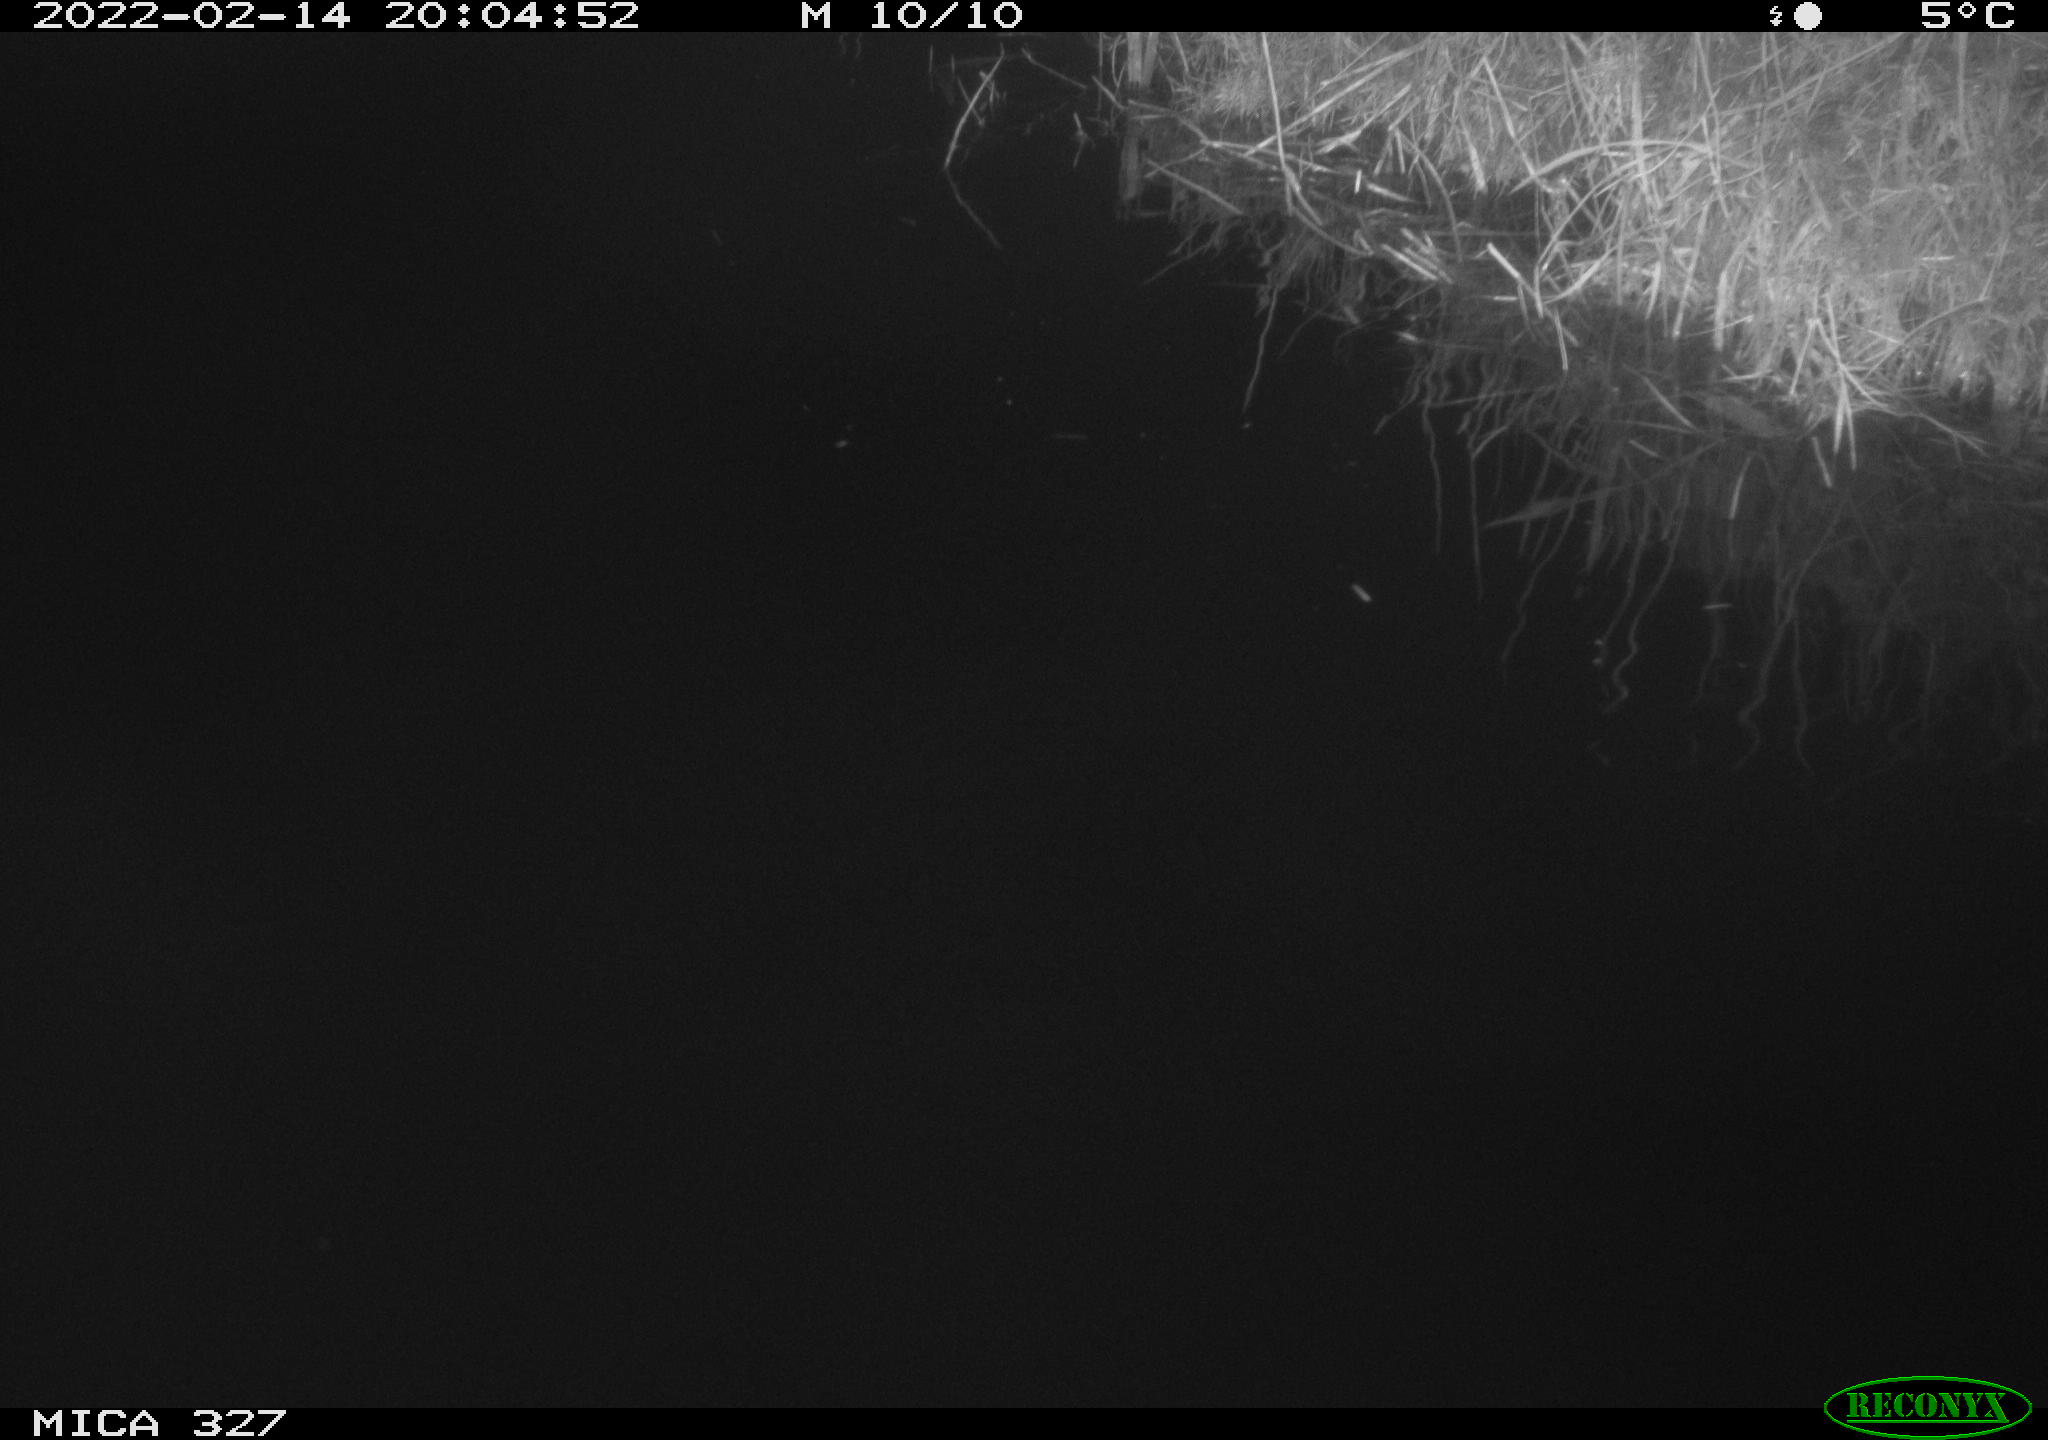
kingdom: Animalia
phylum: Chordata
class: Mammalia
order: Rodentia
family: Cricetidae
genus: Ondatra
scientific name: Ondatra zibethicus
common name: Muskrat
